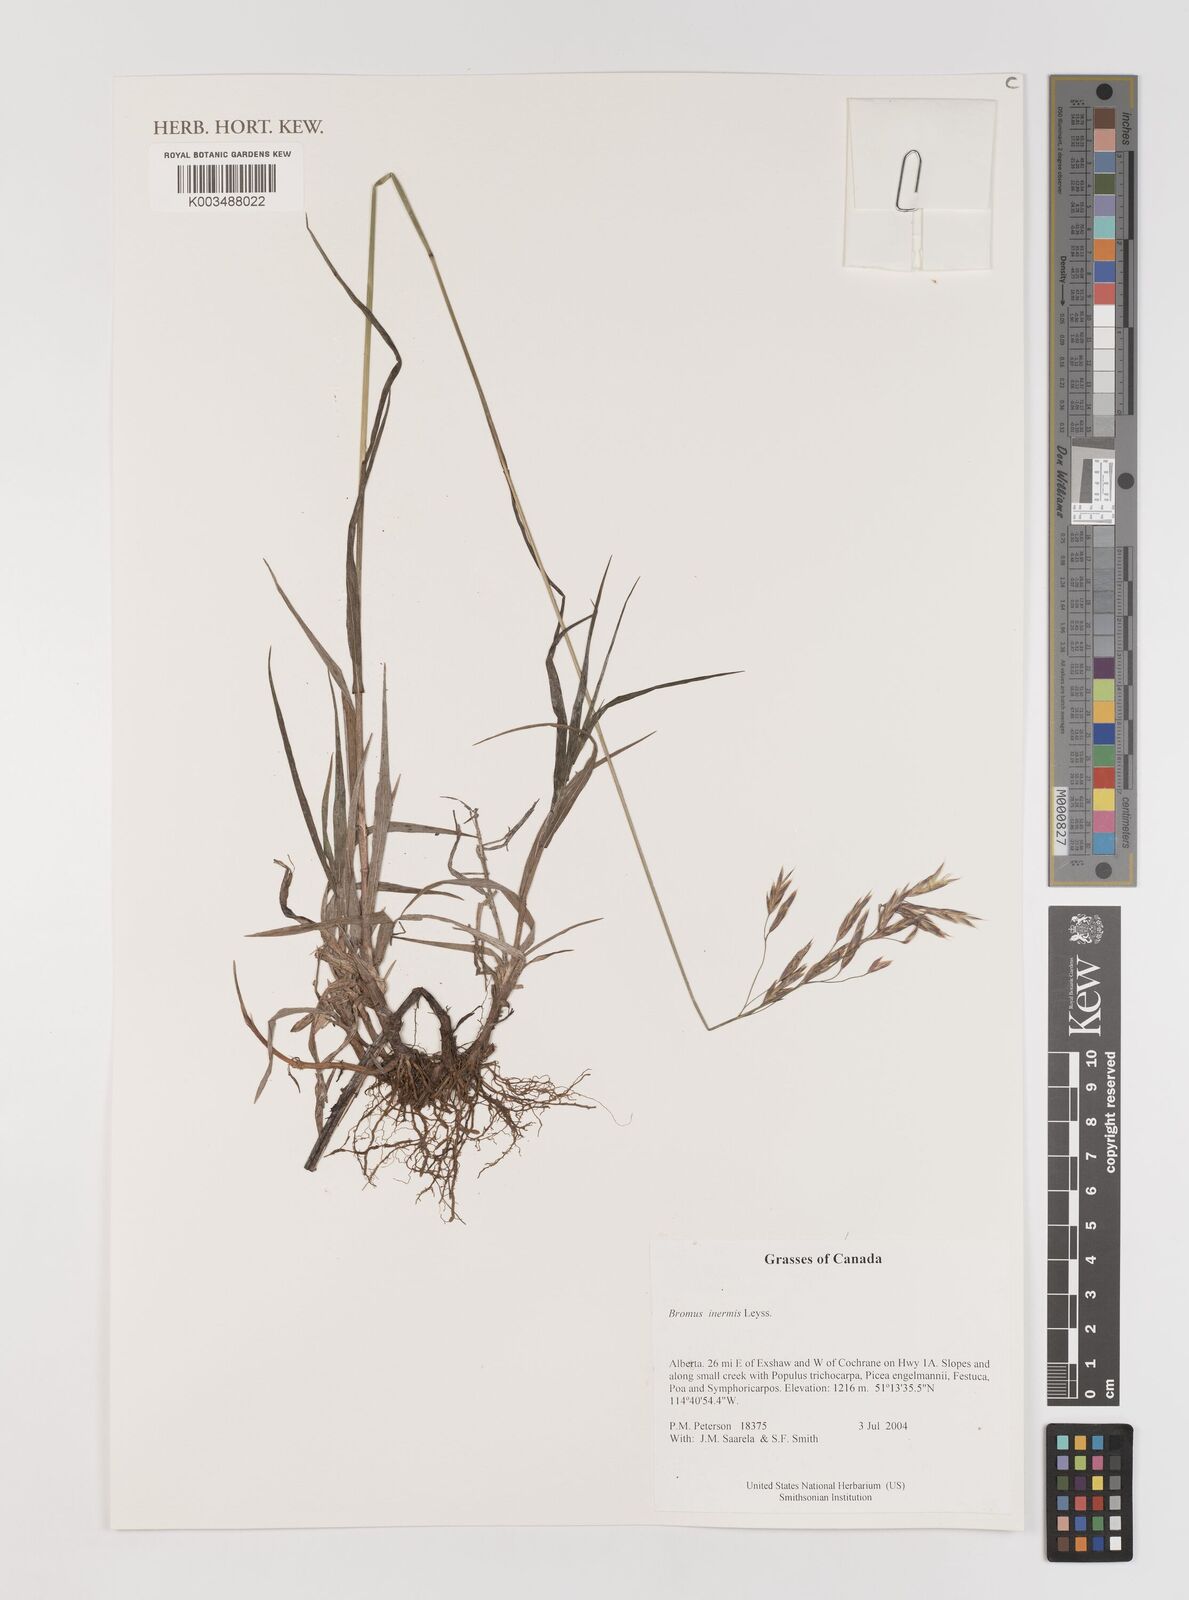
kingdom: Plantae
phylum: Tracheophyta
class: Liliopsida
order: Poales
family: Poaceae
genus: Bromus
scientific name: Bromus inermis
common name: Smooth brome
